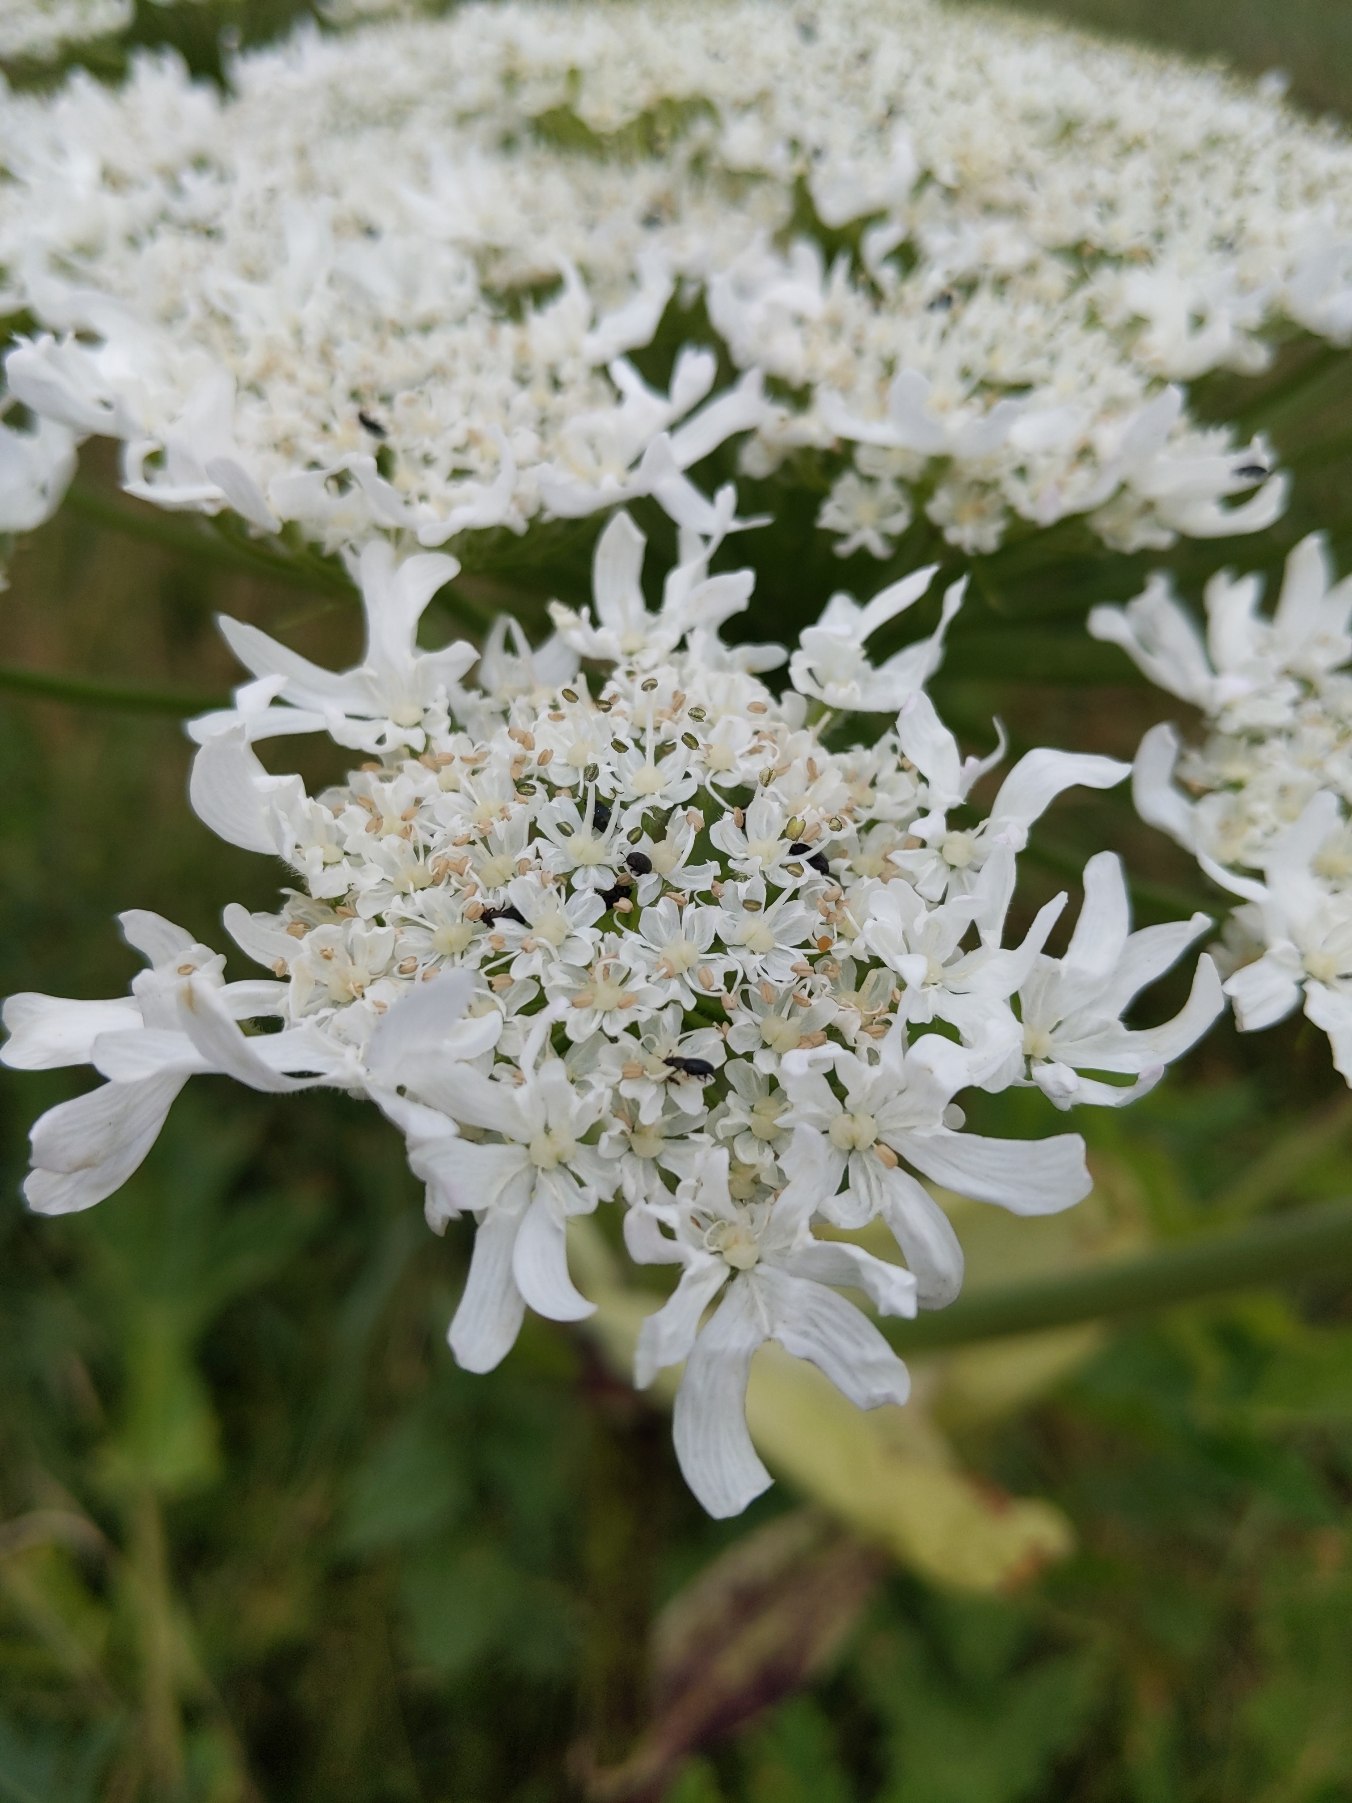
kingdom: Plantae
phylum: Tracheophyta
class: Magnoliopsida
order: Apiales
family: Apiaceae
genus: Heracleum
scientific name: Heracleum mantegazzianum
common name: Kæmpe-bjørneklo
